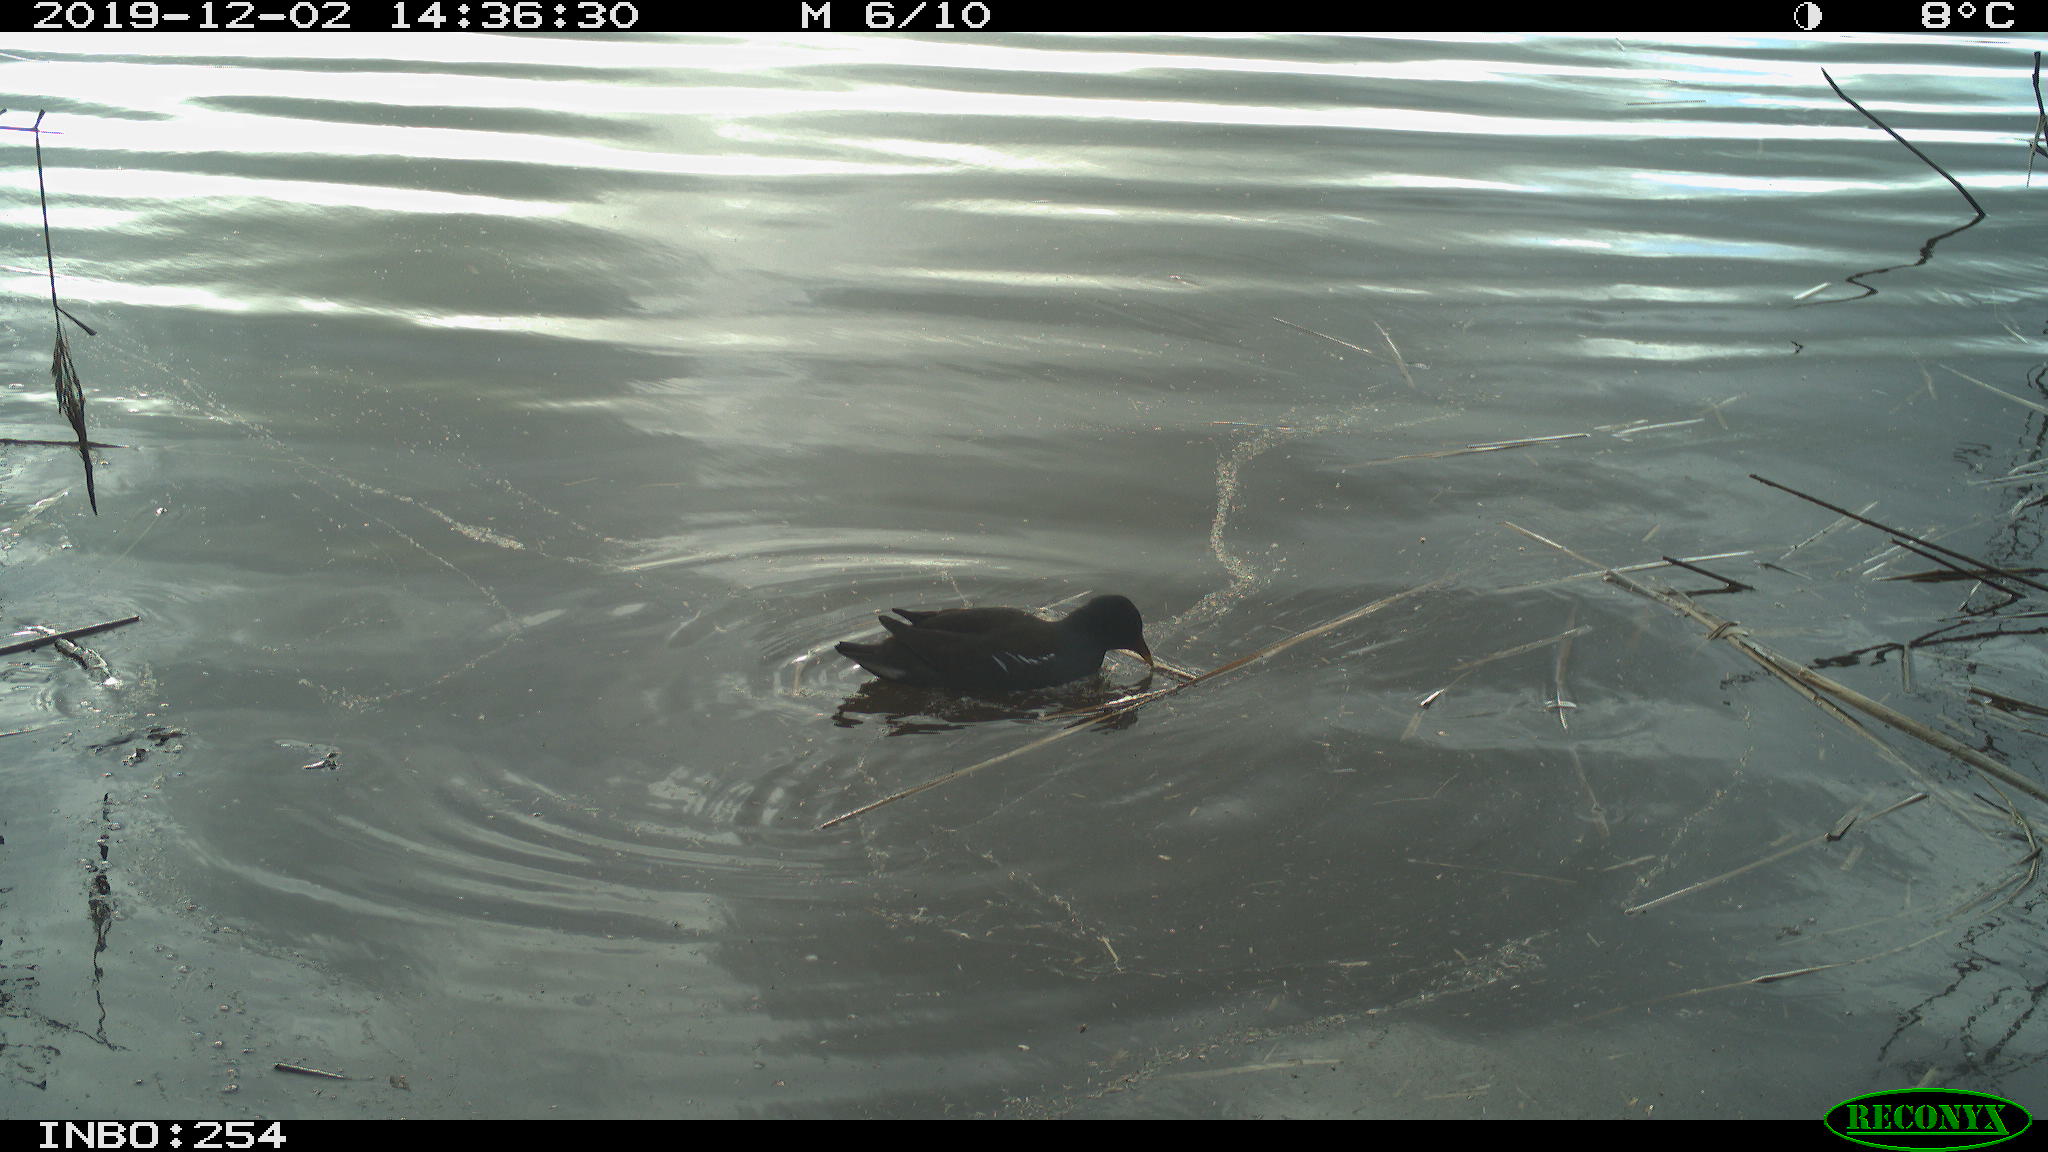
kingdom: Animalia
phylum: Chordata
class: Aves
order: Gruiformes
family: Rallidae
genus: Gallinula
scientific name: Gallinula chloropus
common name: Common moorhen
